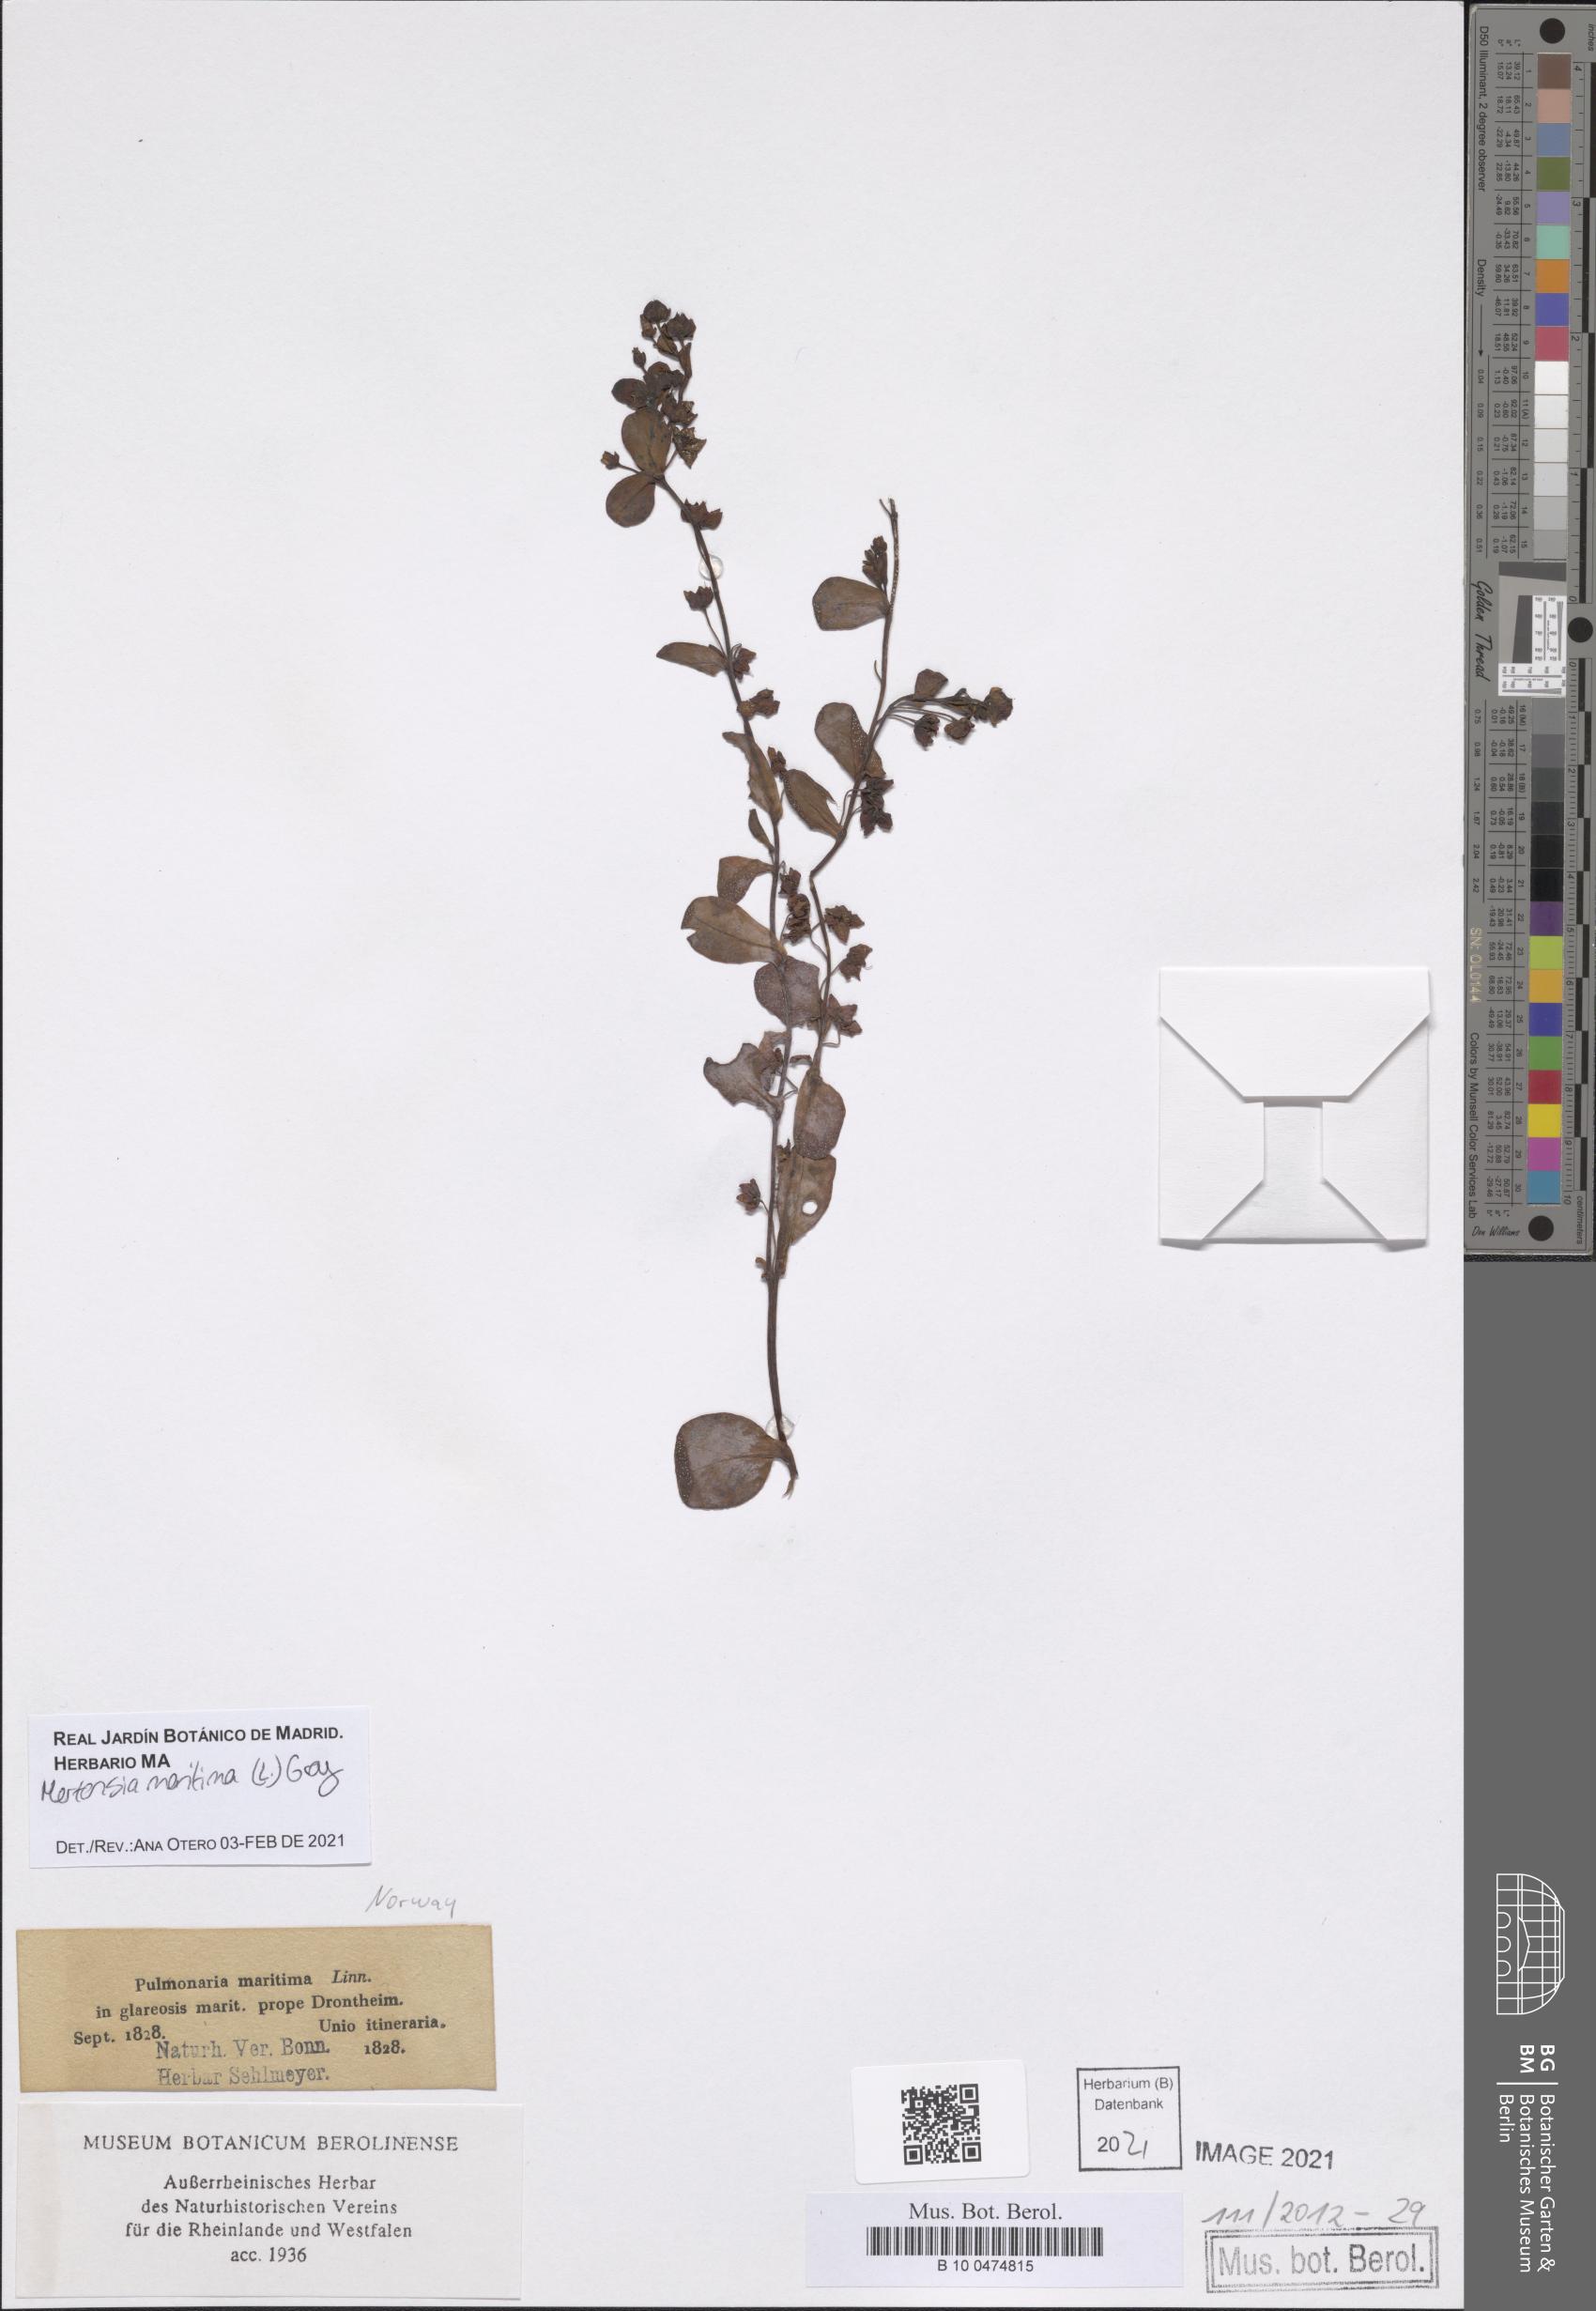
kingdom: Plantae
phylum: Tracheophyta
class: Magnoliopsida
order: Boraginales
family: Boraginaceae
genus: Mertensia
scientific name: Mertensia maritima
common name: Oysterplant
